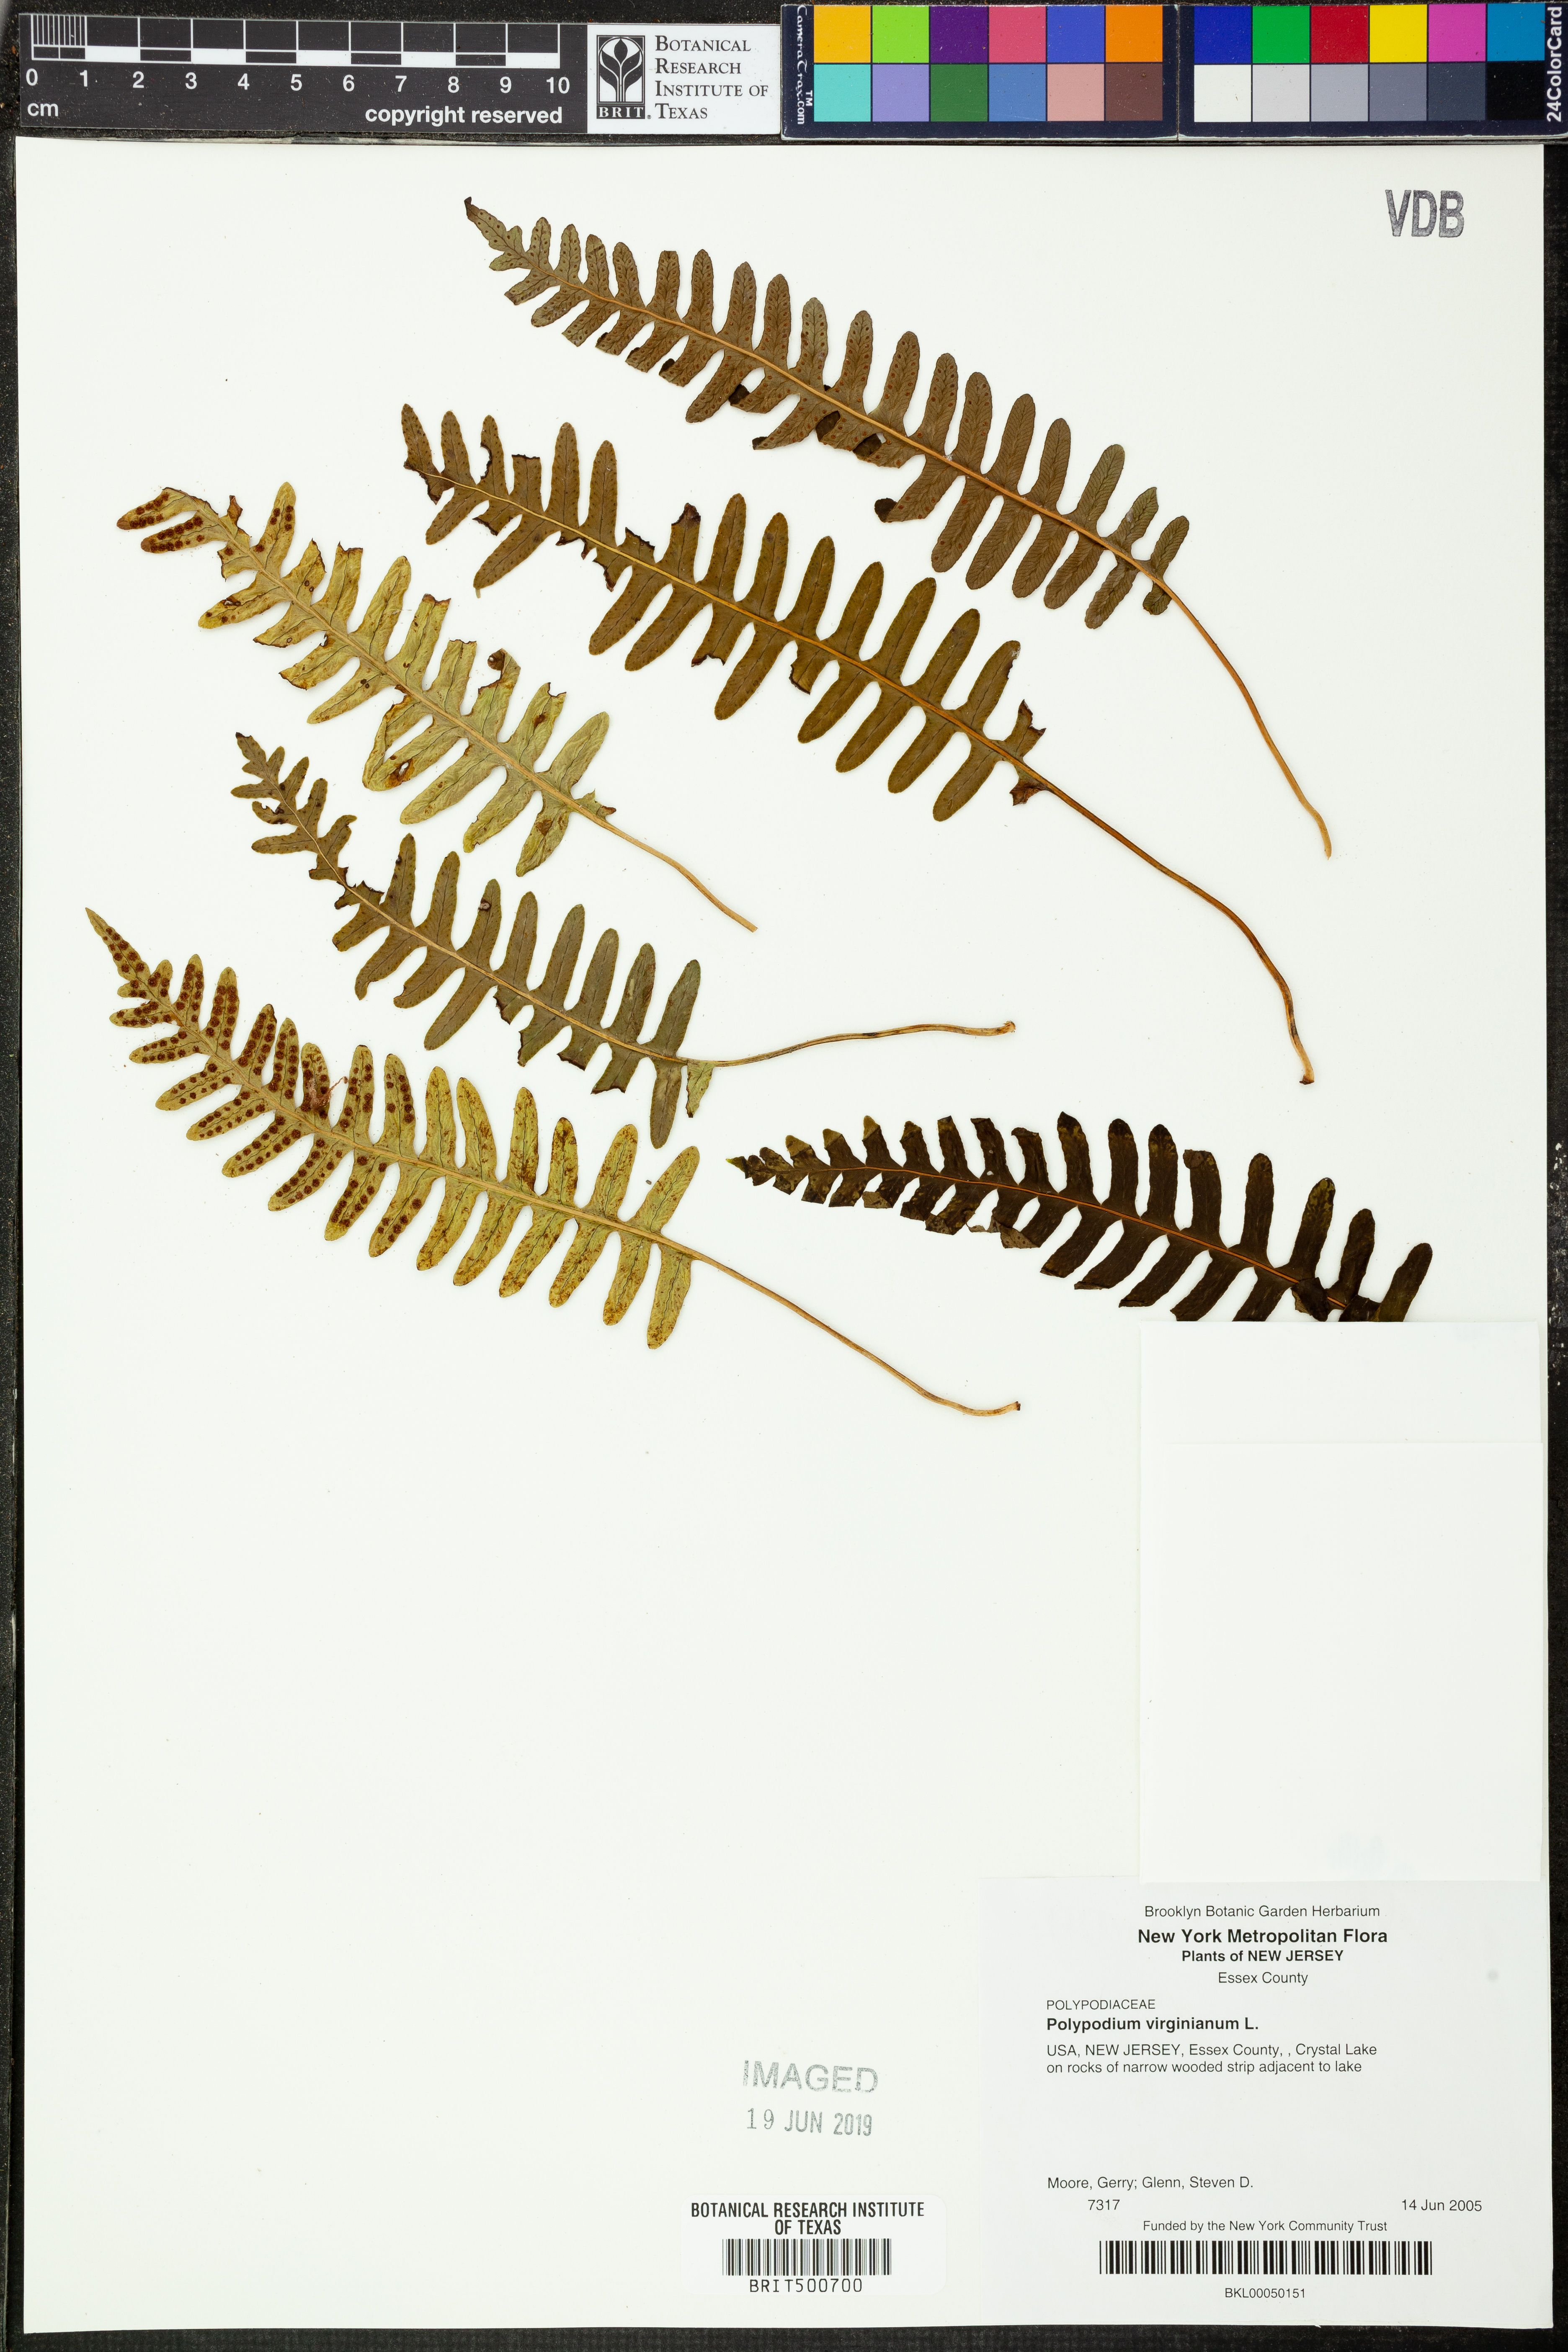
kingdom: Plantae
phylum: Tracheophyta
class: Polypodiopsida
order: Polypodiales
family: Polypodiaceae
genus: Polypodium
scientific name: Polypodium virginianum
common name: American wall fern
